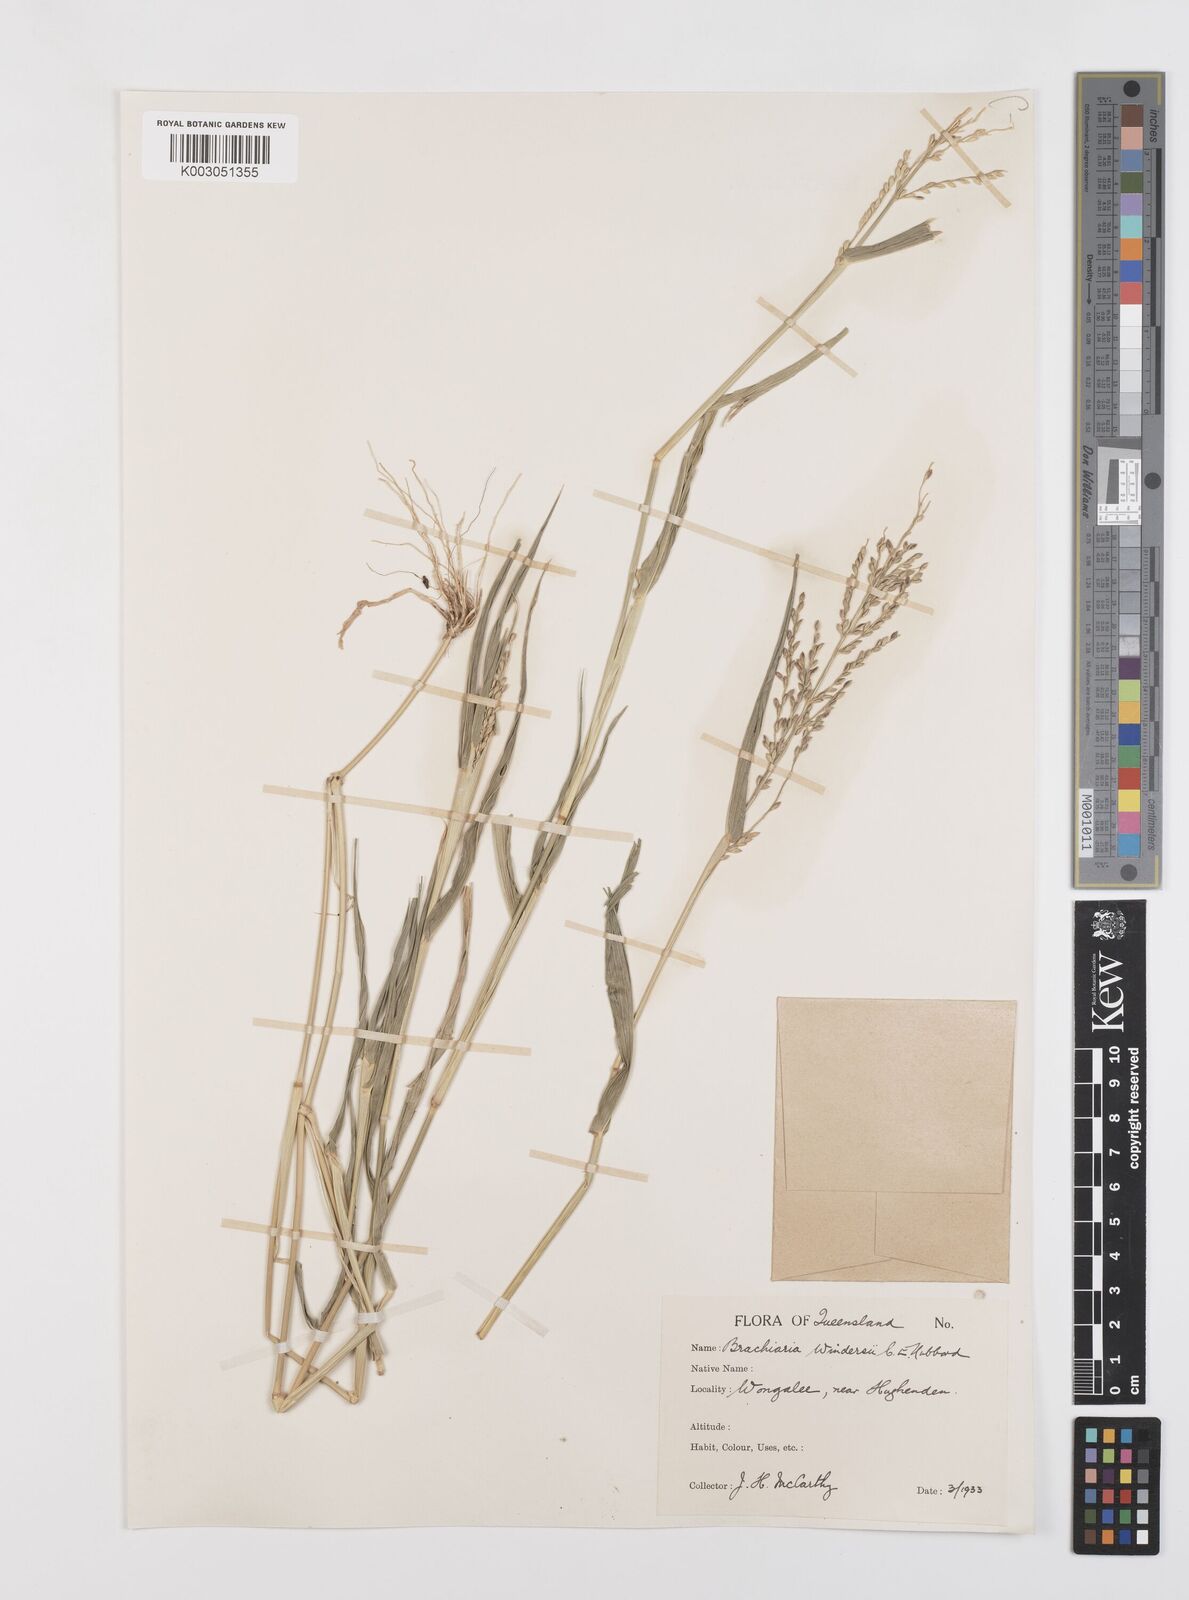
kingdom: Plantae
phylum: Tracheophyta
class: Liliopsida
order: Poales
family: Poaceae
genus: Urochloa
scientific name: Urochloa whiteana
